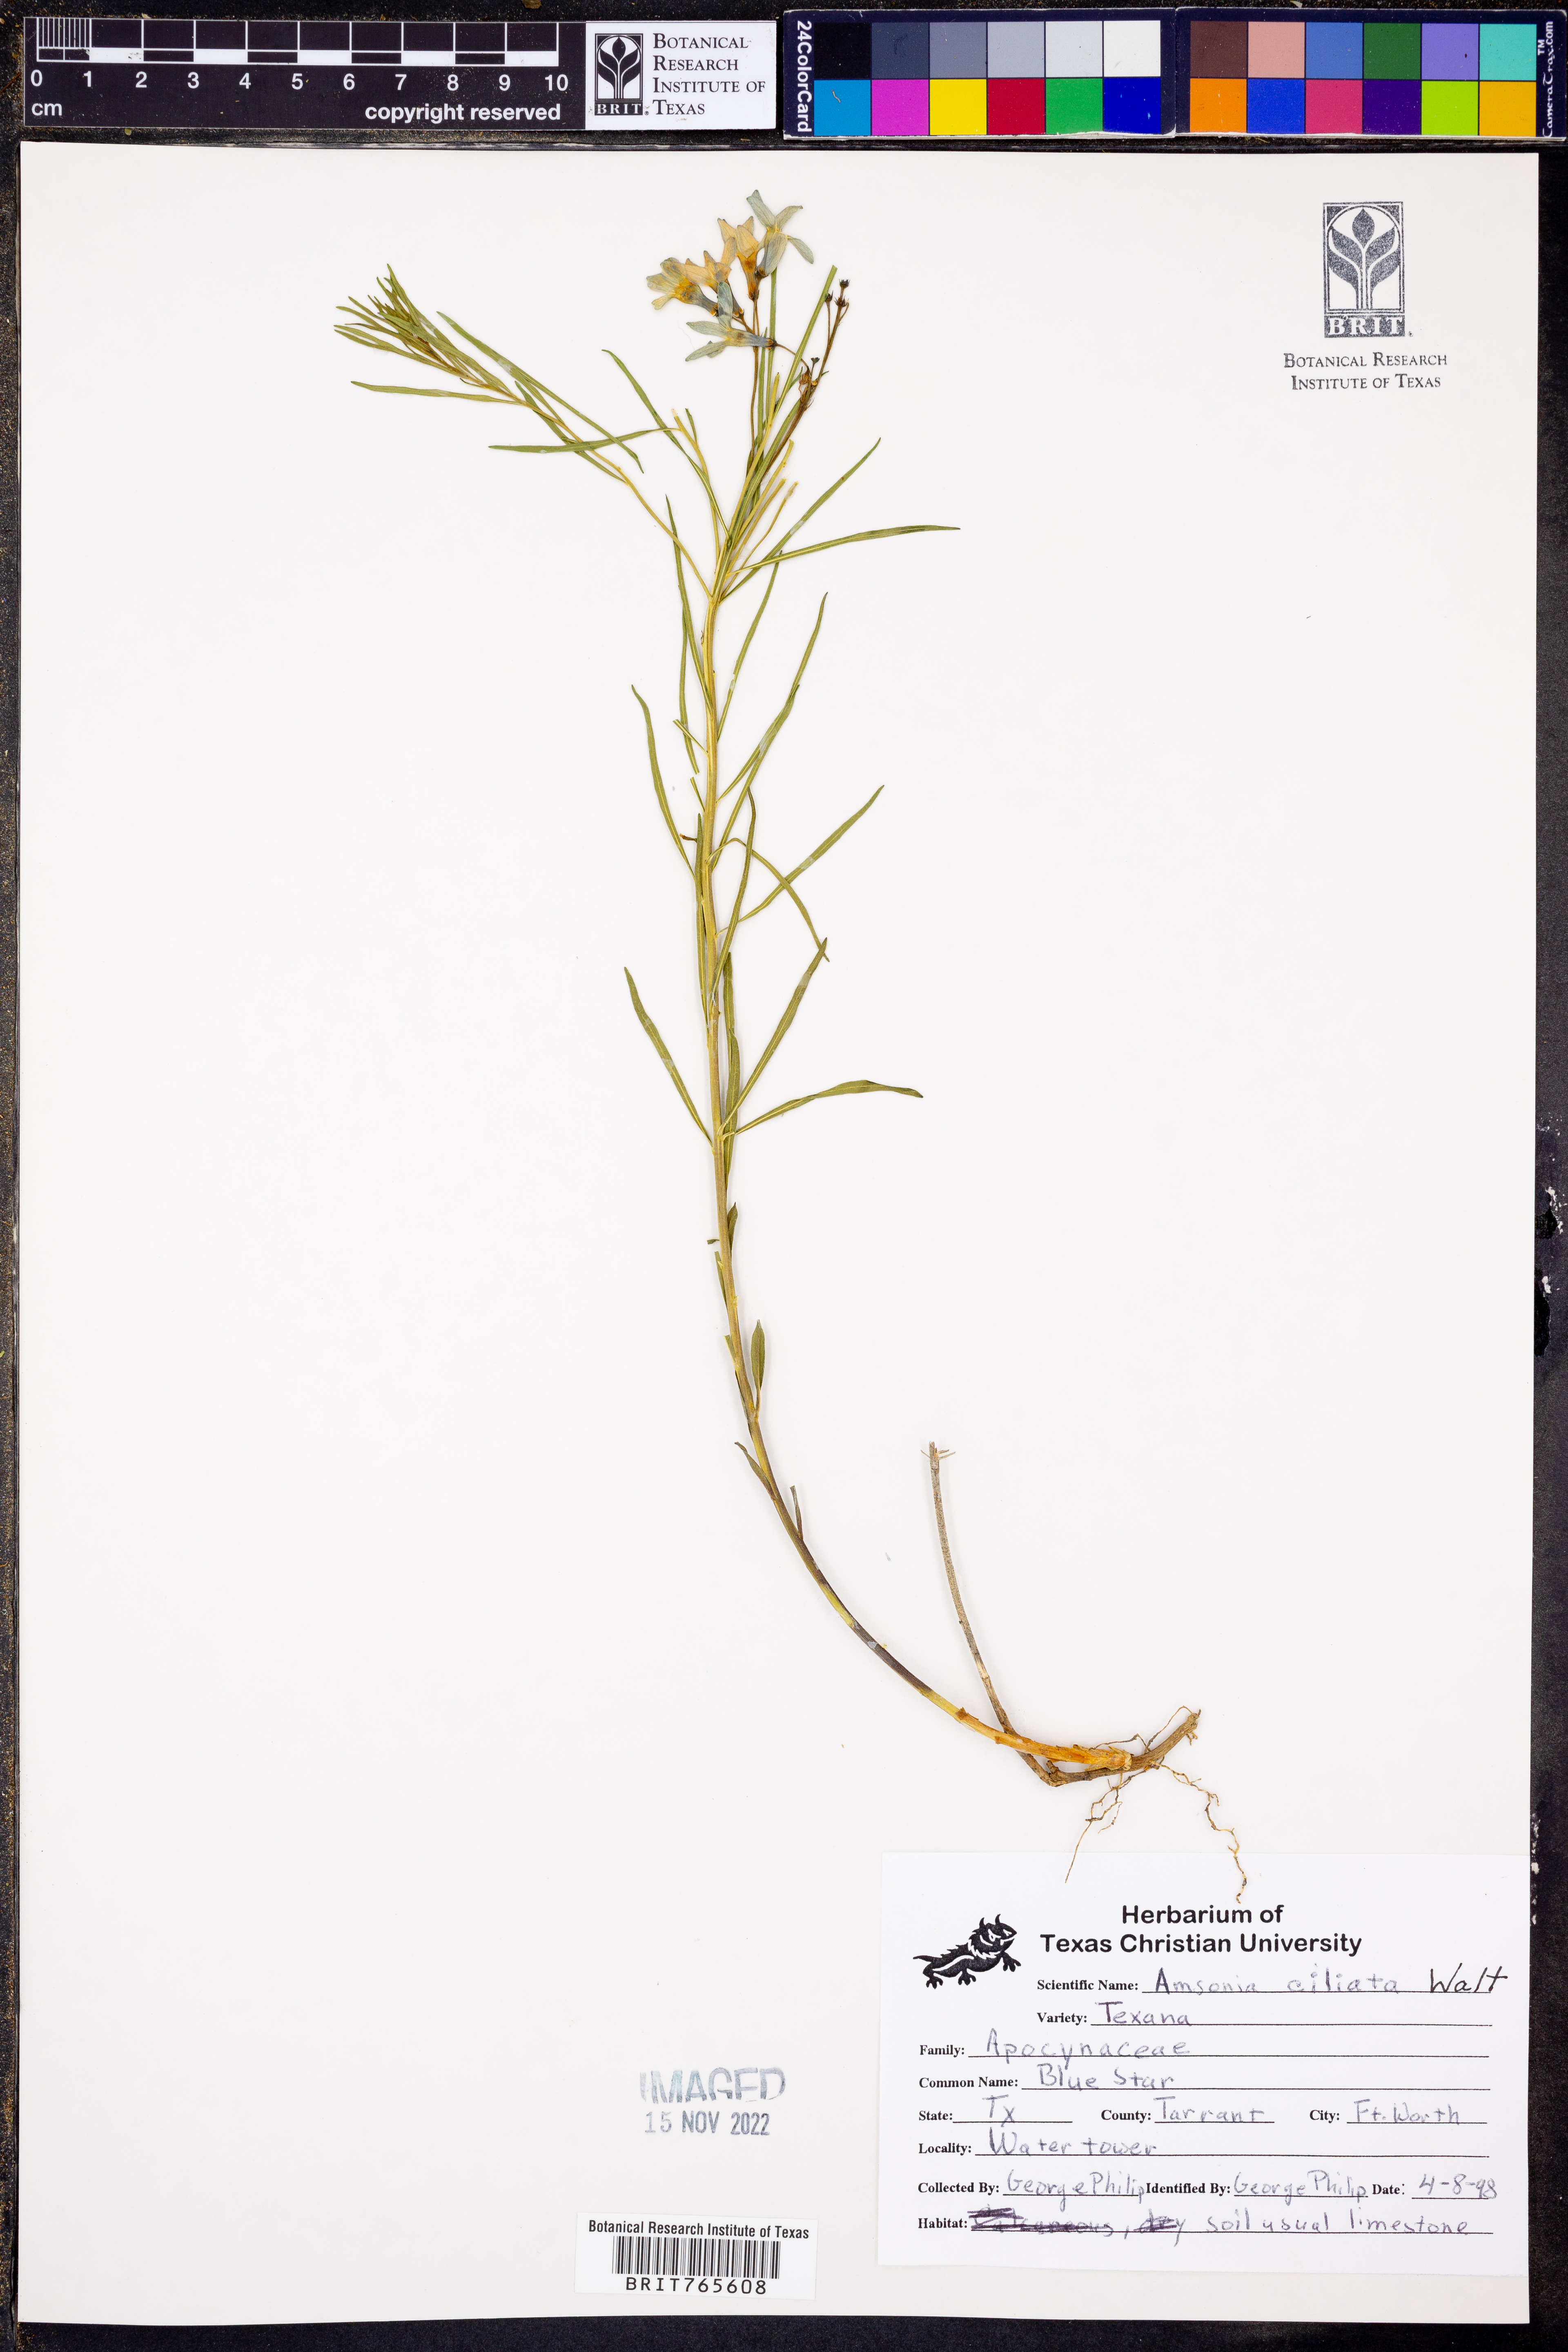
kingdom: Plantae
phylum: Tracheophyta
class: Magnoliopsida
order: Gentianales
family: Apocynaceae
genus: Amsonia
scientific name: Amsonia ciliata
